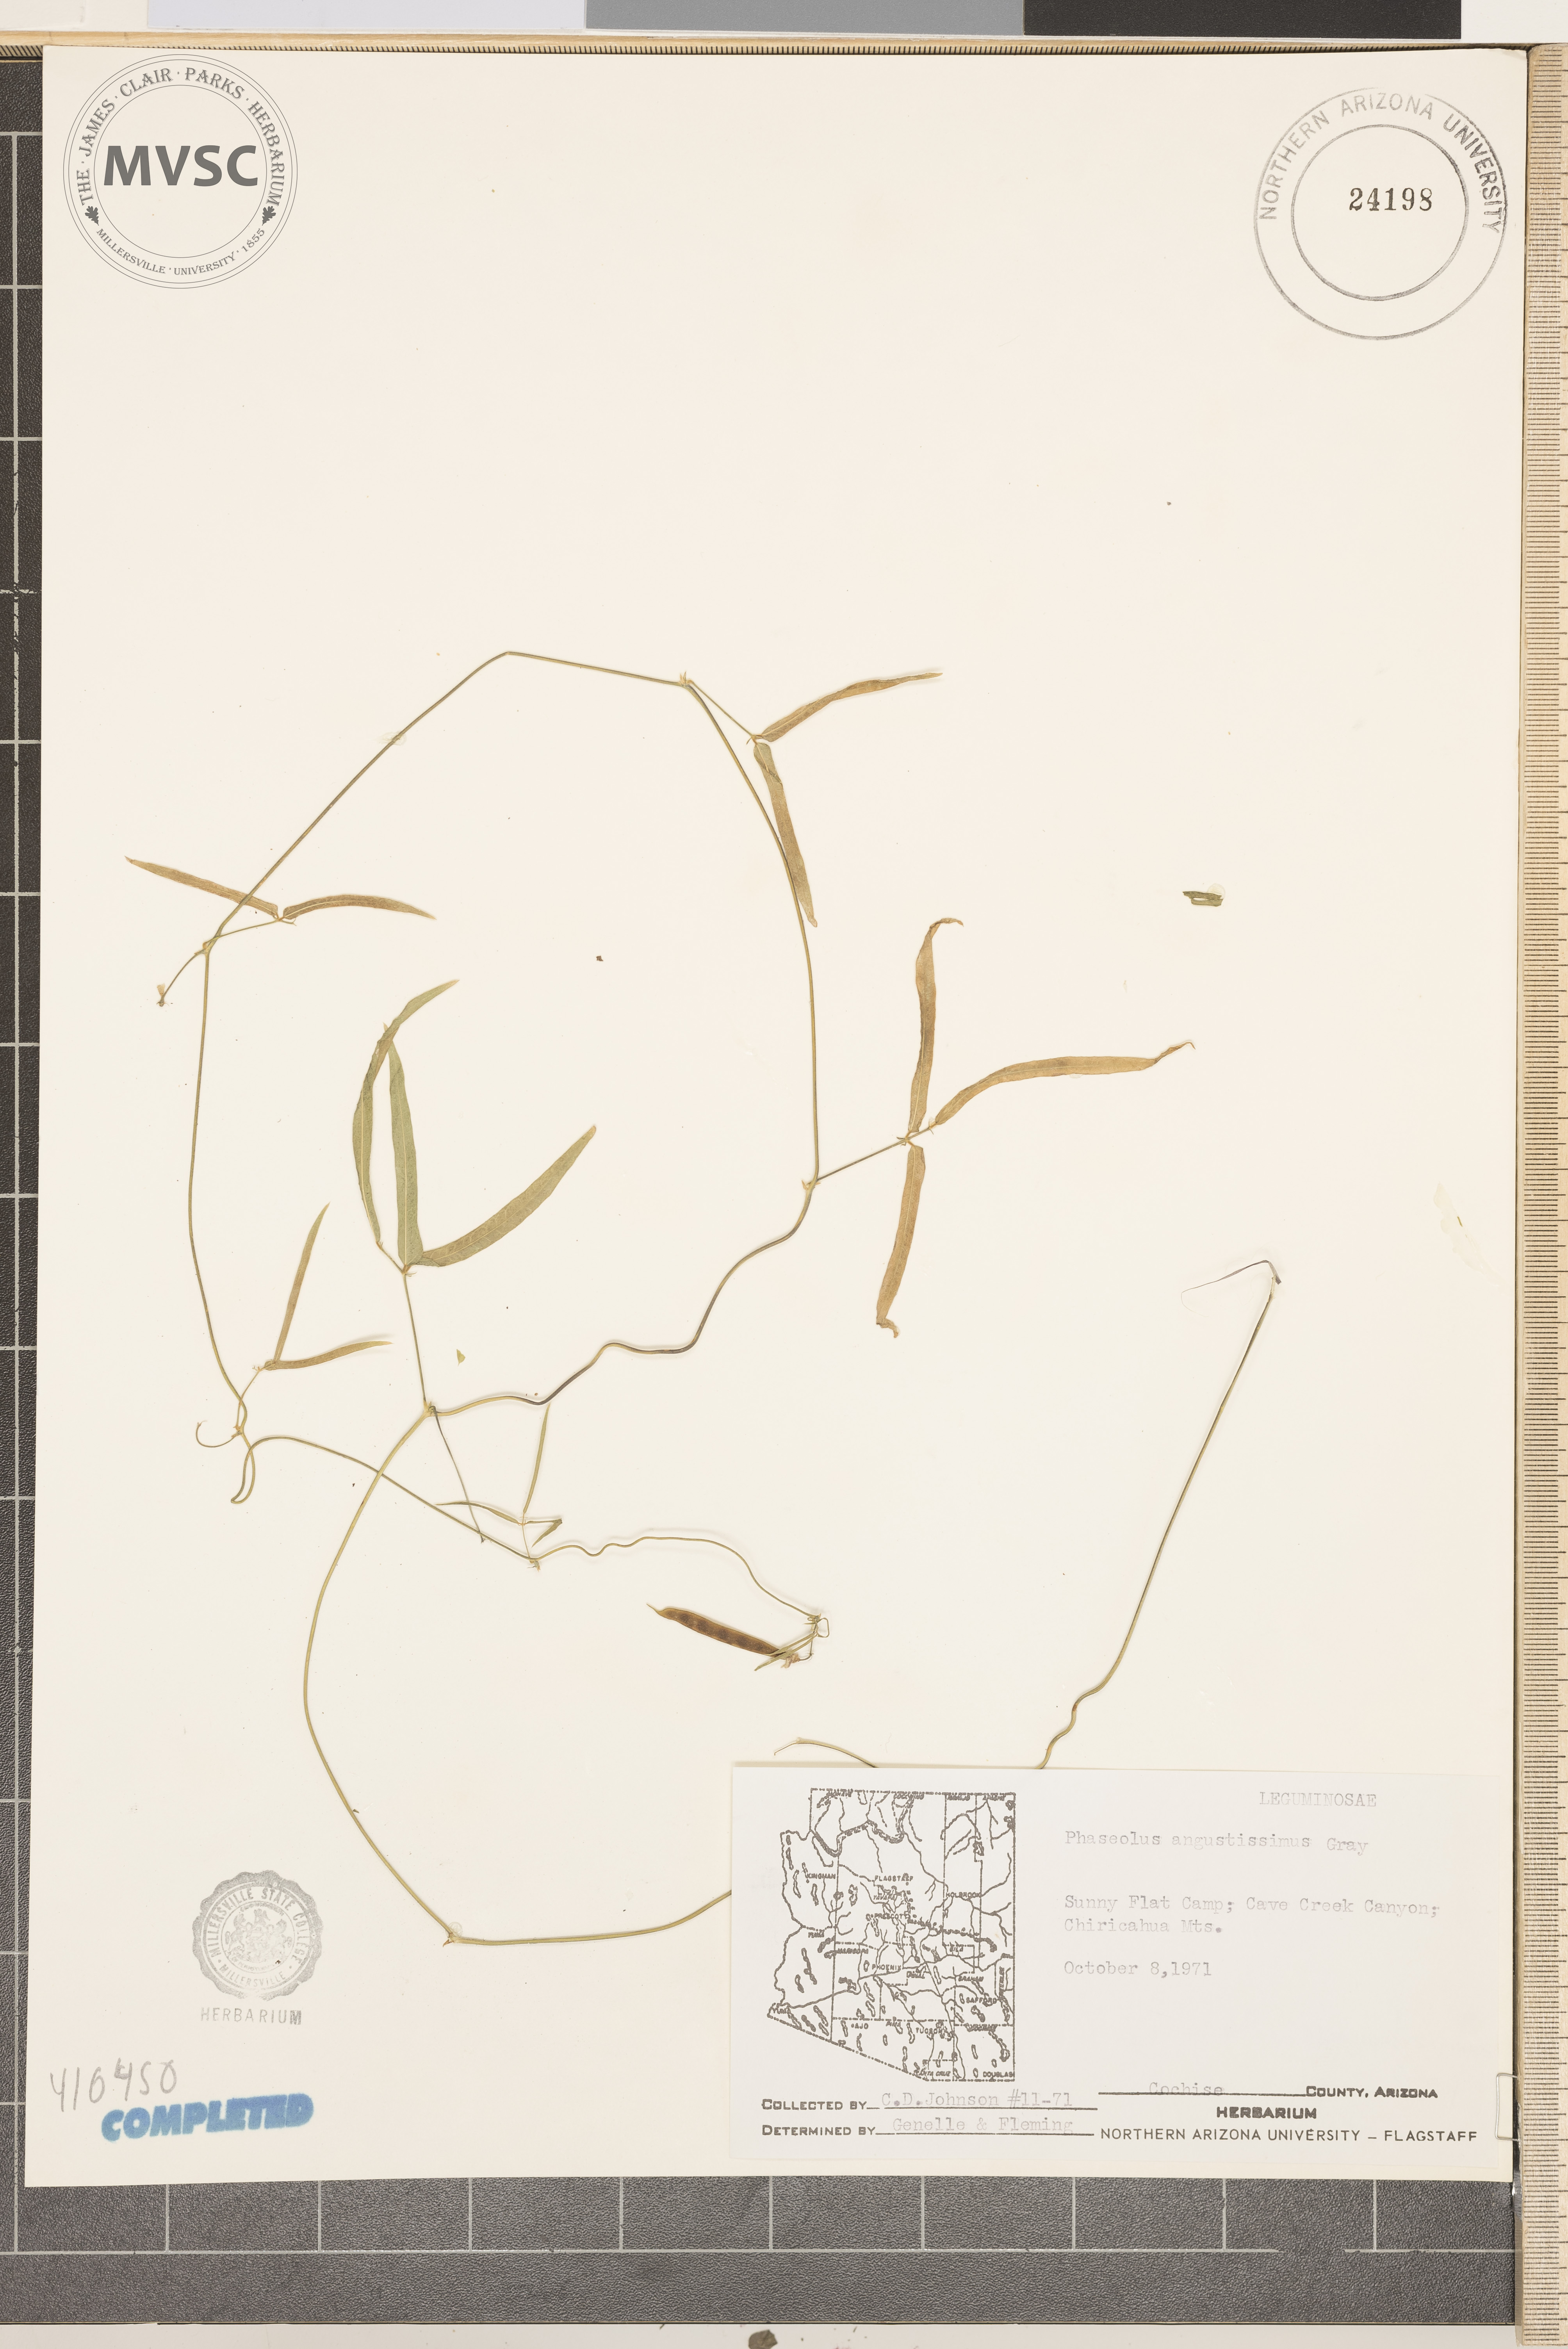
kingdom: Plantae
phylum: Tracheophyta
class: Magnoliopsida
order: Fabales
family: Fabaceae
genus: Phaseolus
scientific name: Phaseolus angustissimus
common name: Slimleaf bean
